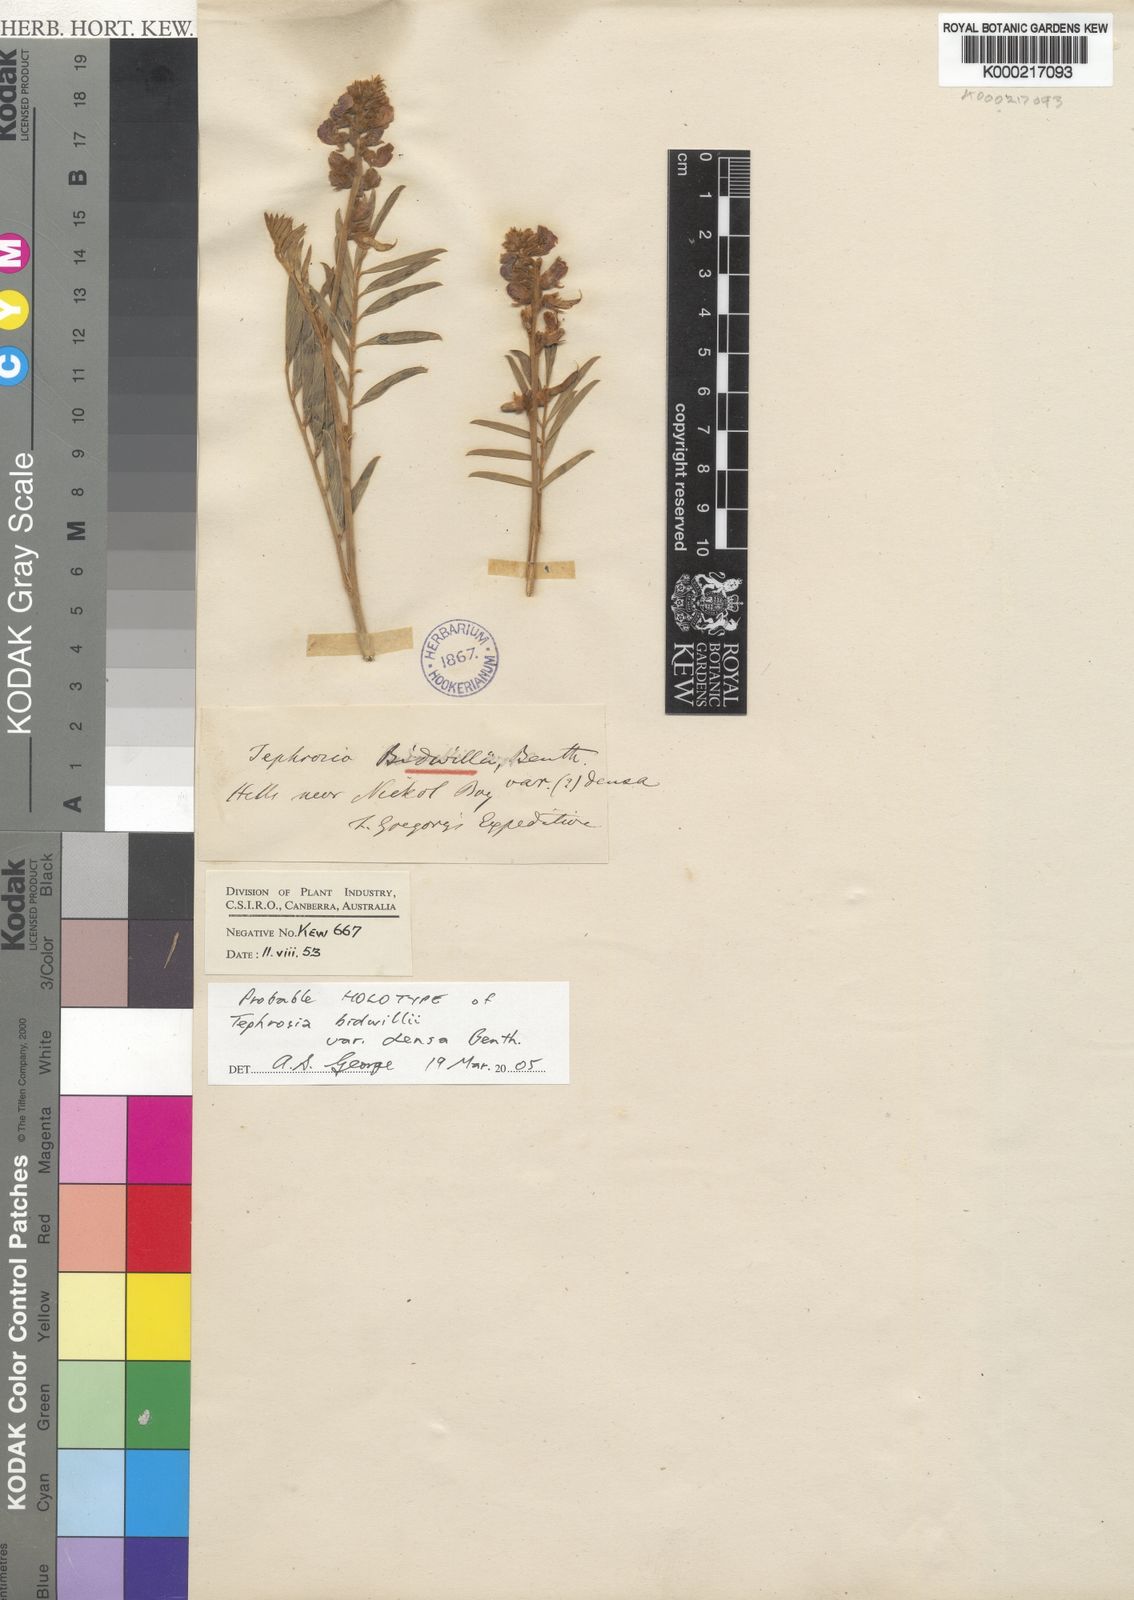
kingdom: Plantae
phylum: Tracheophyta
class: Magnoliopsida
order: Fabales
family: Fabaceae
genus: Tephrosia
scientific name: Tephrosia densa
